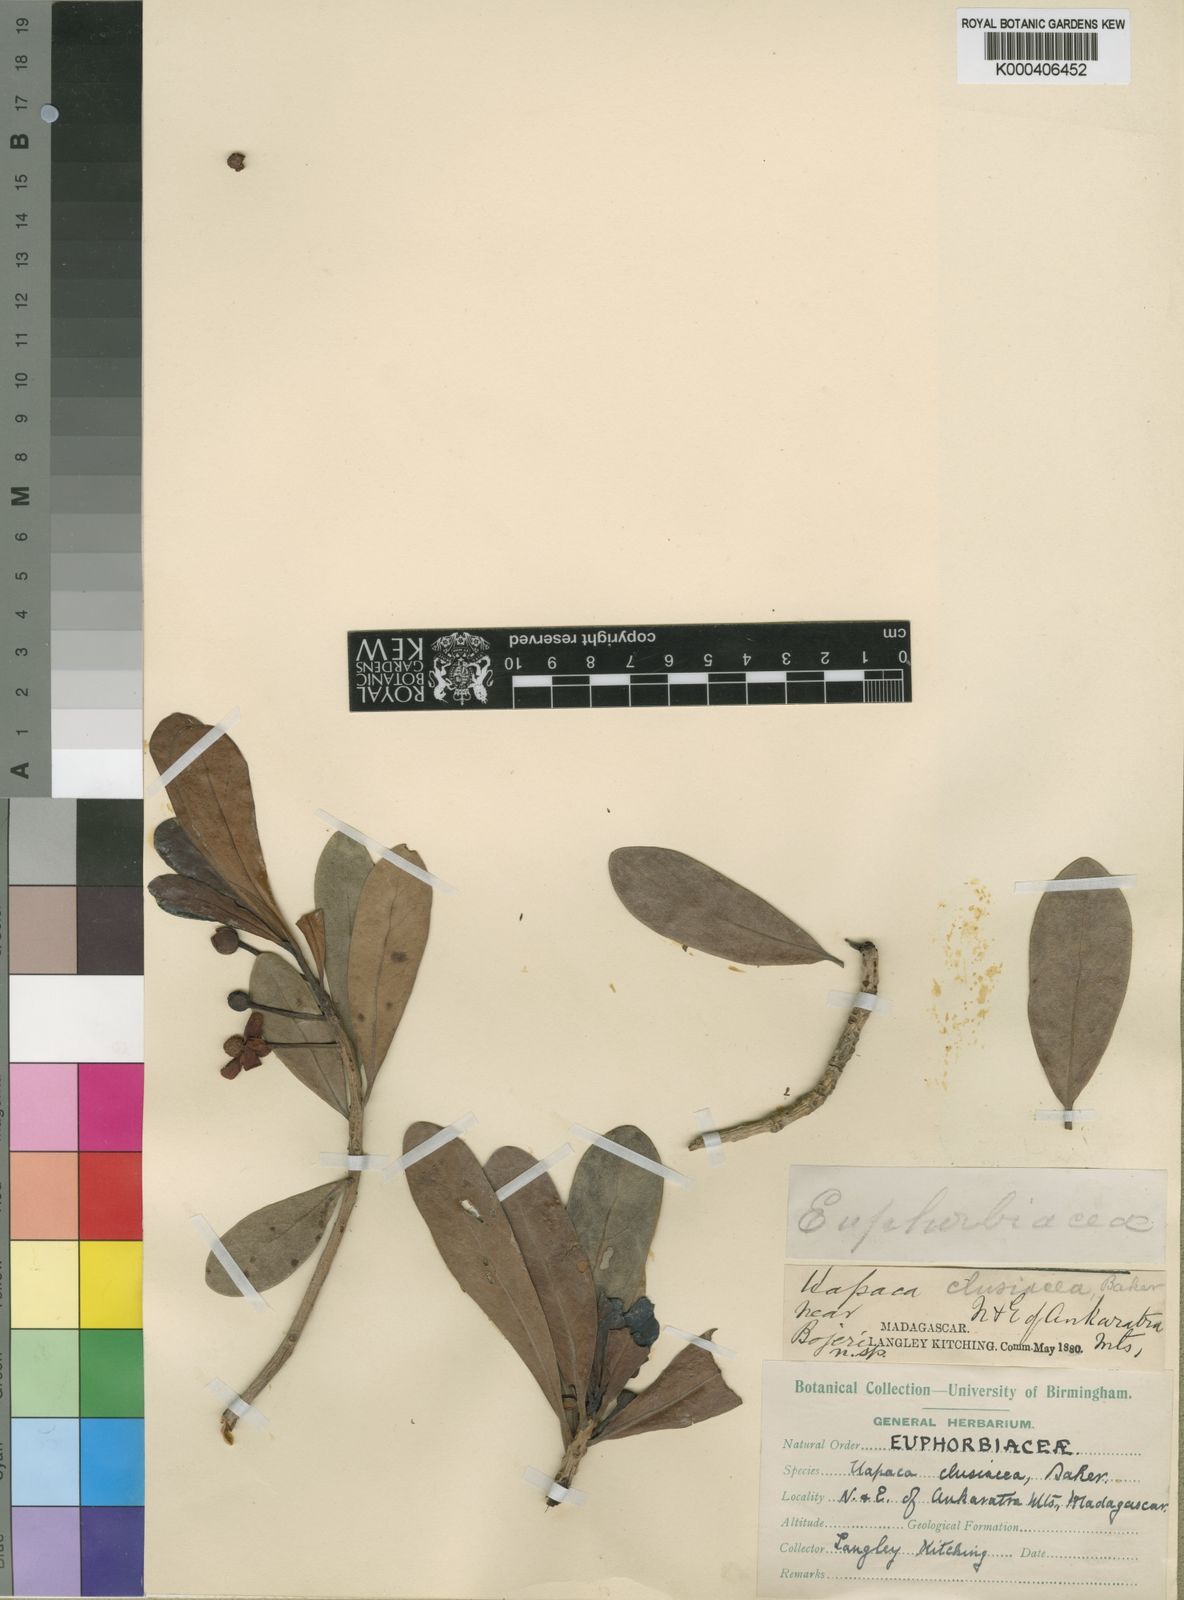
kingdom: Plantae
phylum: Tracheophyta
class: Magnoliopsida
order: Malpighiales
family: Phyllanthaceae
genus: Uapaca
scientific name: Uapaca bojeri
